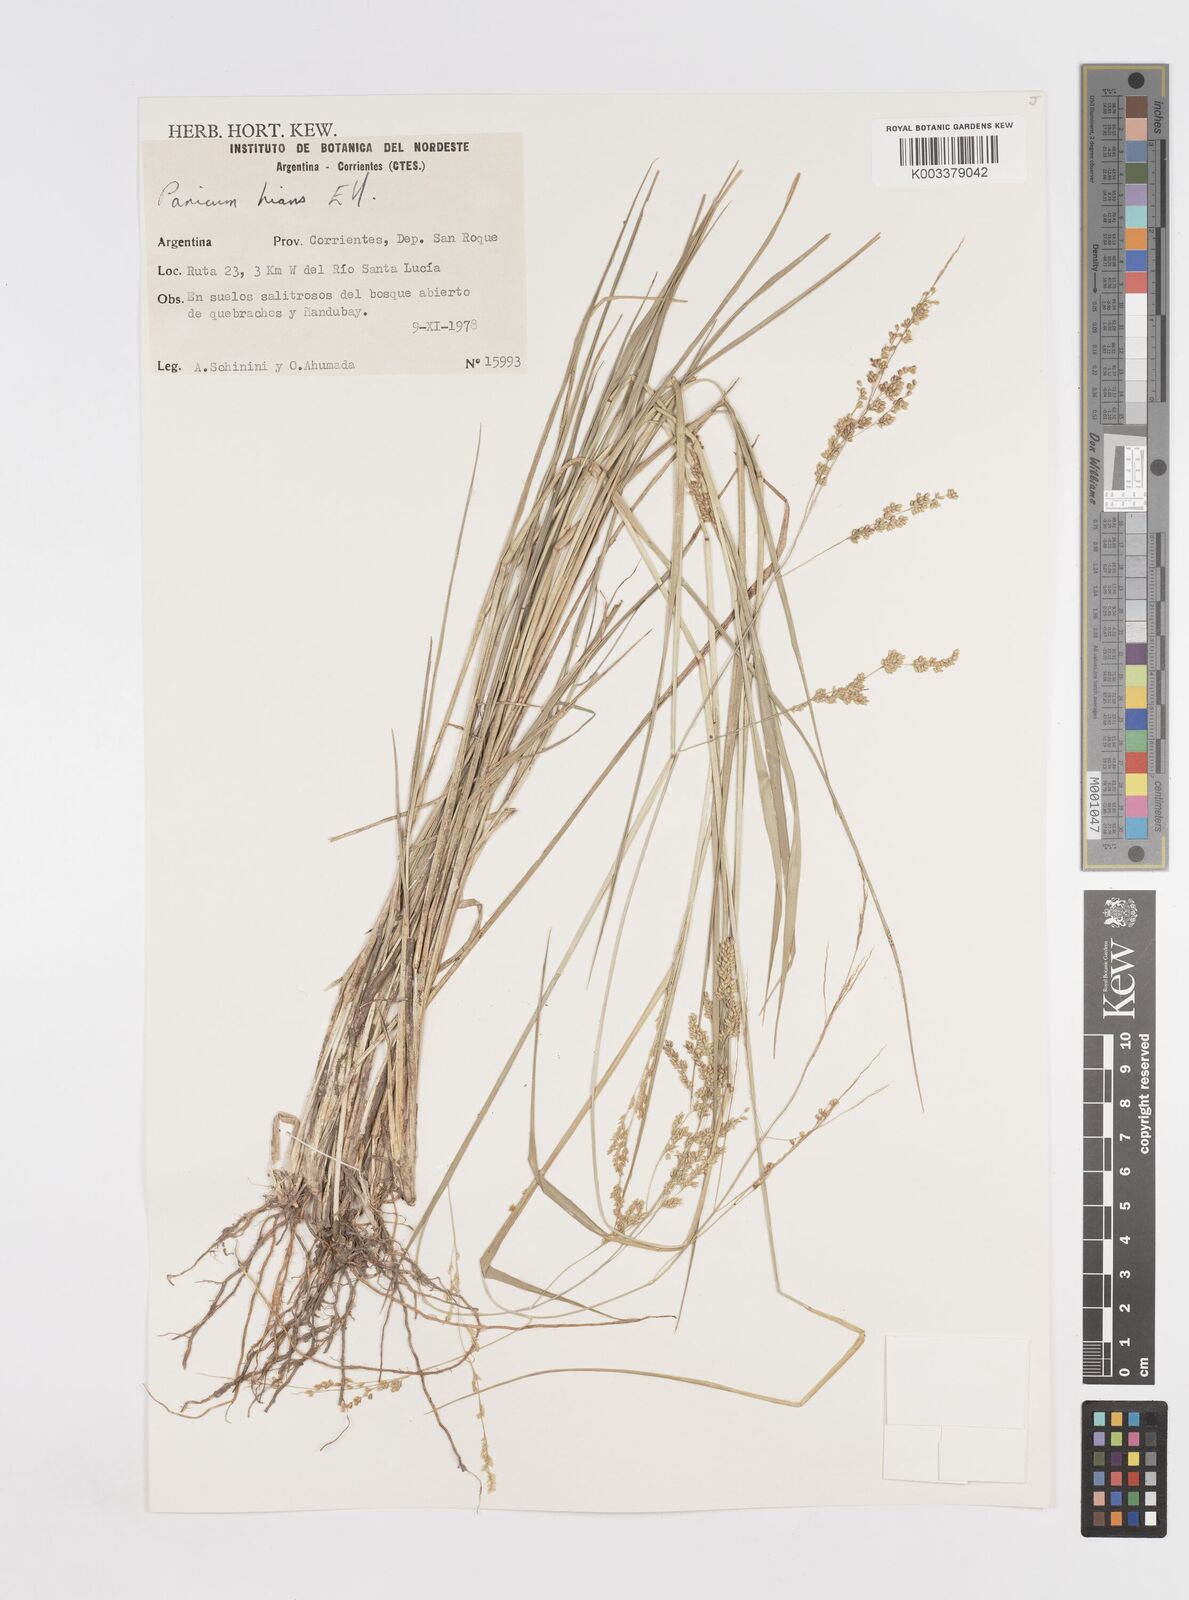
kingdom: Plantae
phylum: Tracheophyta
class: Liliopsida
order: Poales
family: Poaceae
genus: Steinchisma
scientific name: Steinchisma hians
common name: Gaping panic grass
